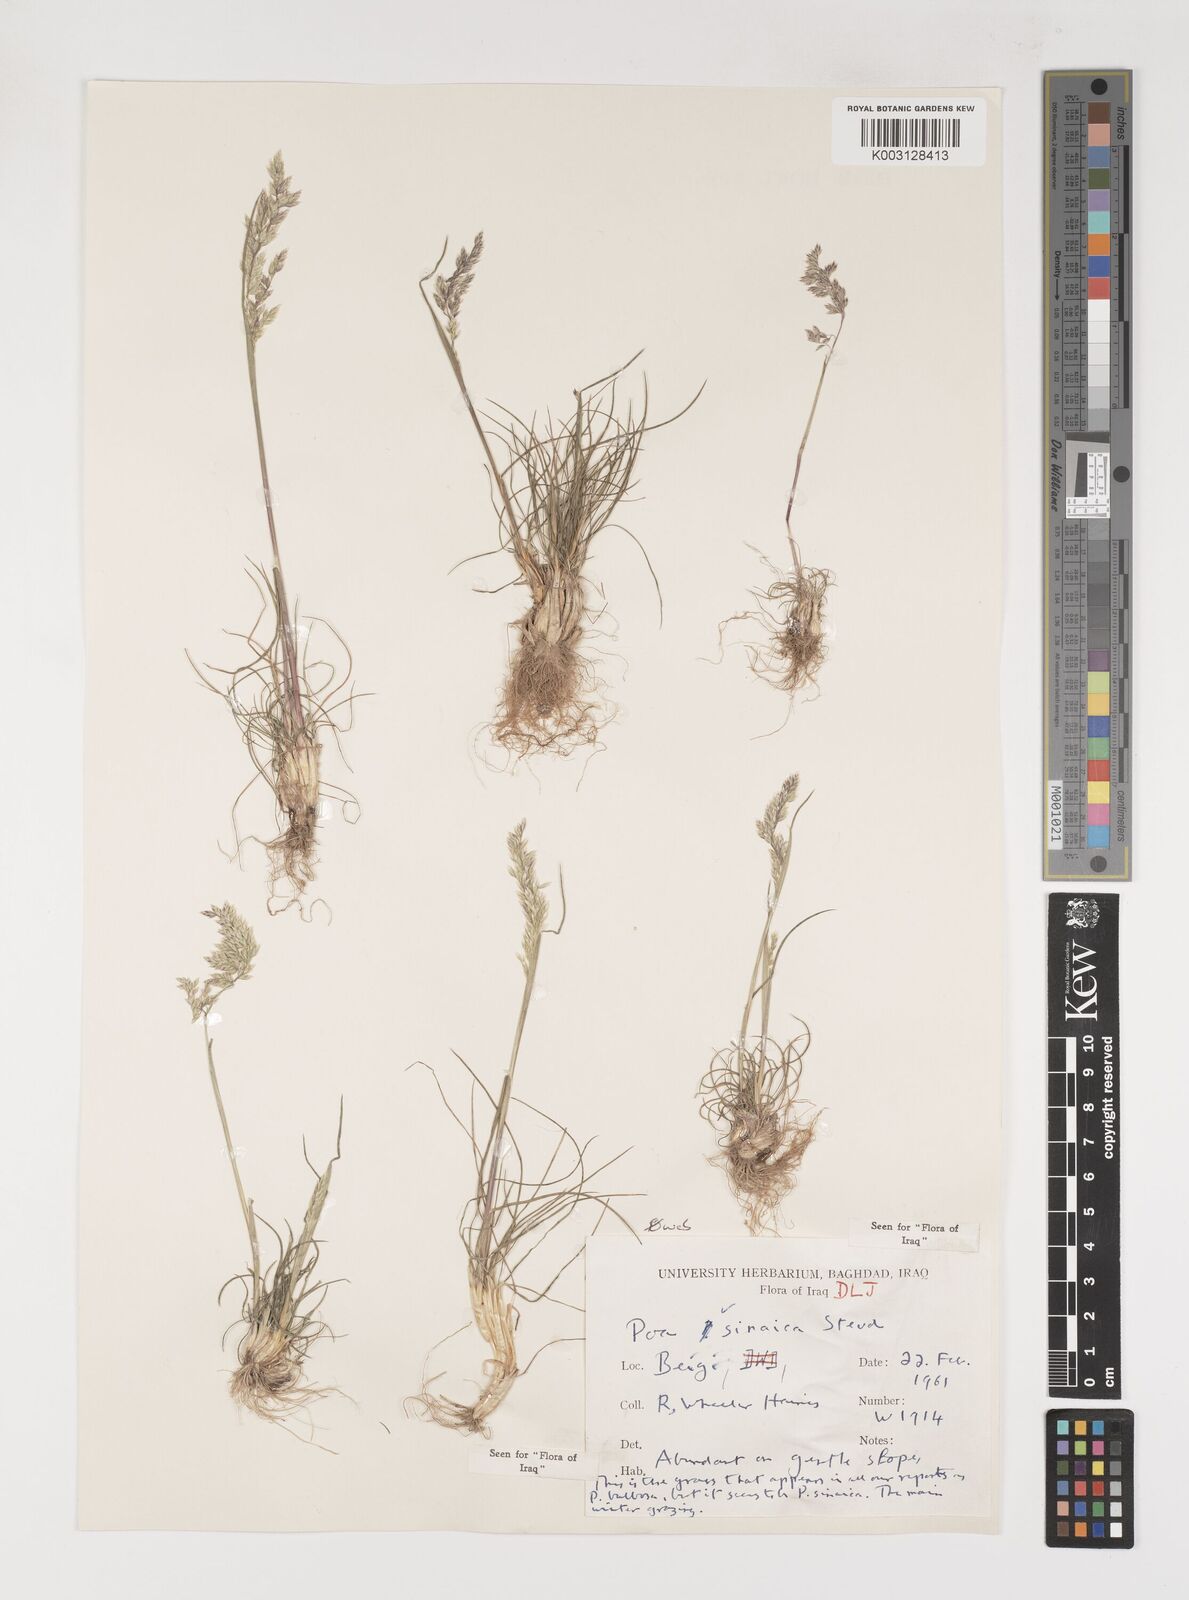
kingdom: Plantae
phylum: Tracheophyta
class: Liliopsida
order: Poales
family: Poaceae
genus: Poa
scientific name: Poa sinaica
